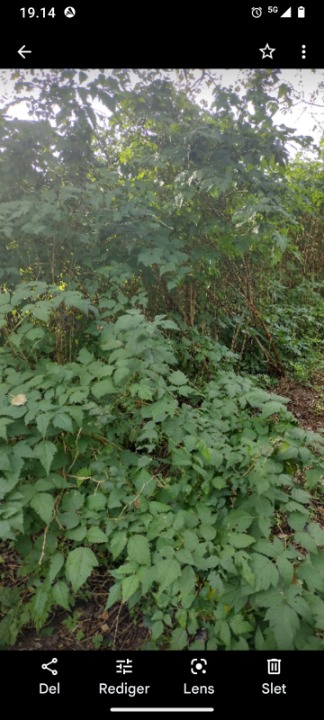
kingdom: Plantae
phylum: Tracheophyta
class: Magnoliopsida
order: Rosales
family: Rosaceae
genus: Rubus
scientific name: Rubus spectabilis
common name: Laksebær
